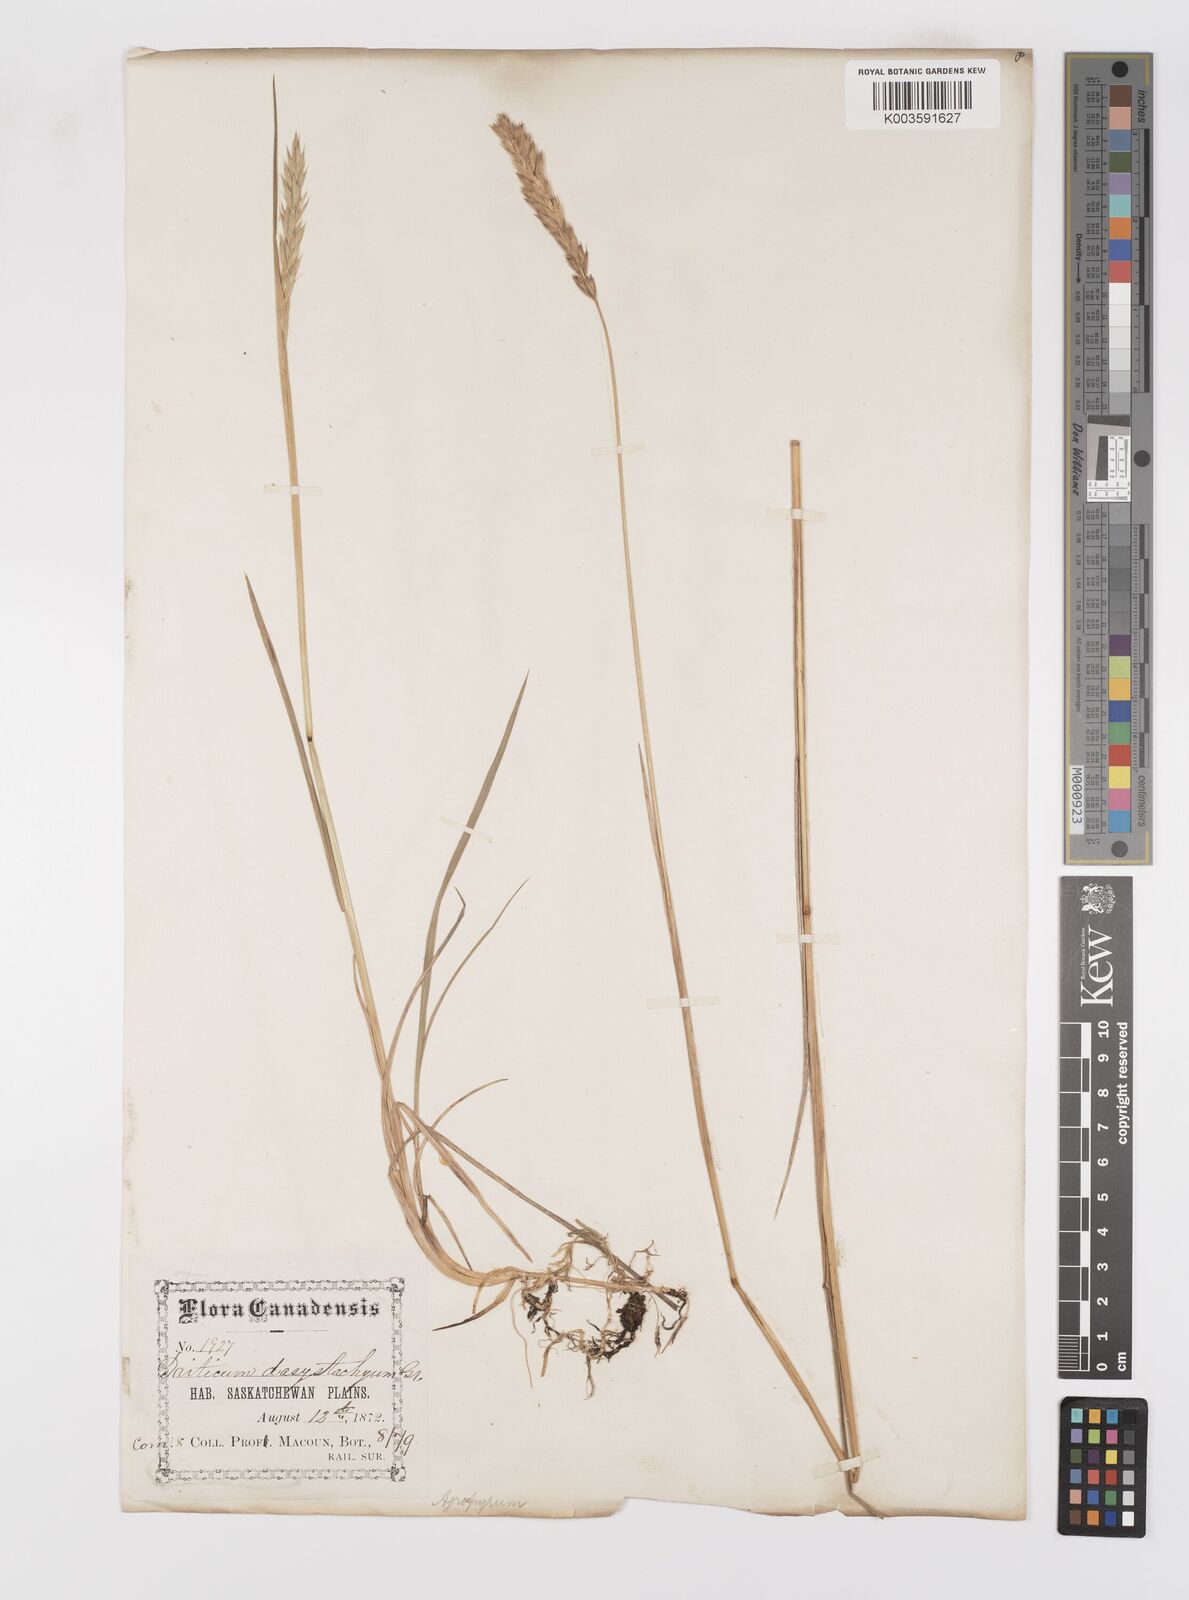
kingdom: Plantae
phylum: Tracheophyta
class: Liliopsida
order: Poales
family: Poaceae
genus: Leymus
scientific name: Leymus
